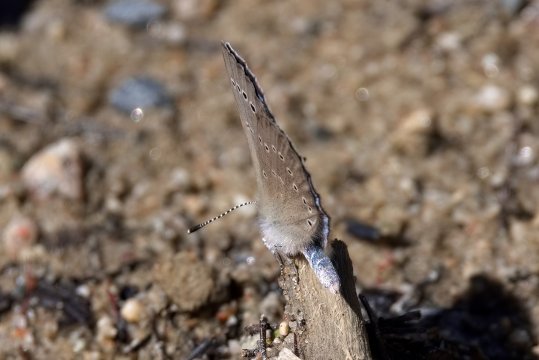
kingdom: Animalia
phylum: Arthropoda
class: Insecta
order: Lepidoptera
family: Lycaenidae
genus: Glaucopsyche
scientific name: Glaucopsyche lygdamus
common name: Silvery Blue
